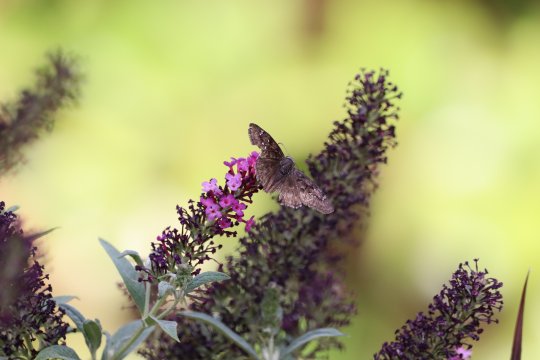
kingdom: Animalia
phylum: Arthropoda
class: Insecta
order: Lepidoptera
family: Hesperiidae
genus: Erynnis
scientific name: Erynnis tristis
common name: Mournful Duskywing
